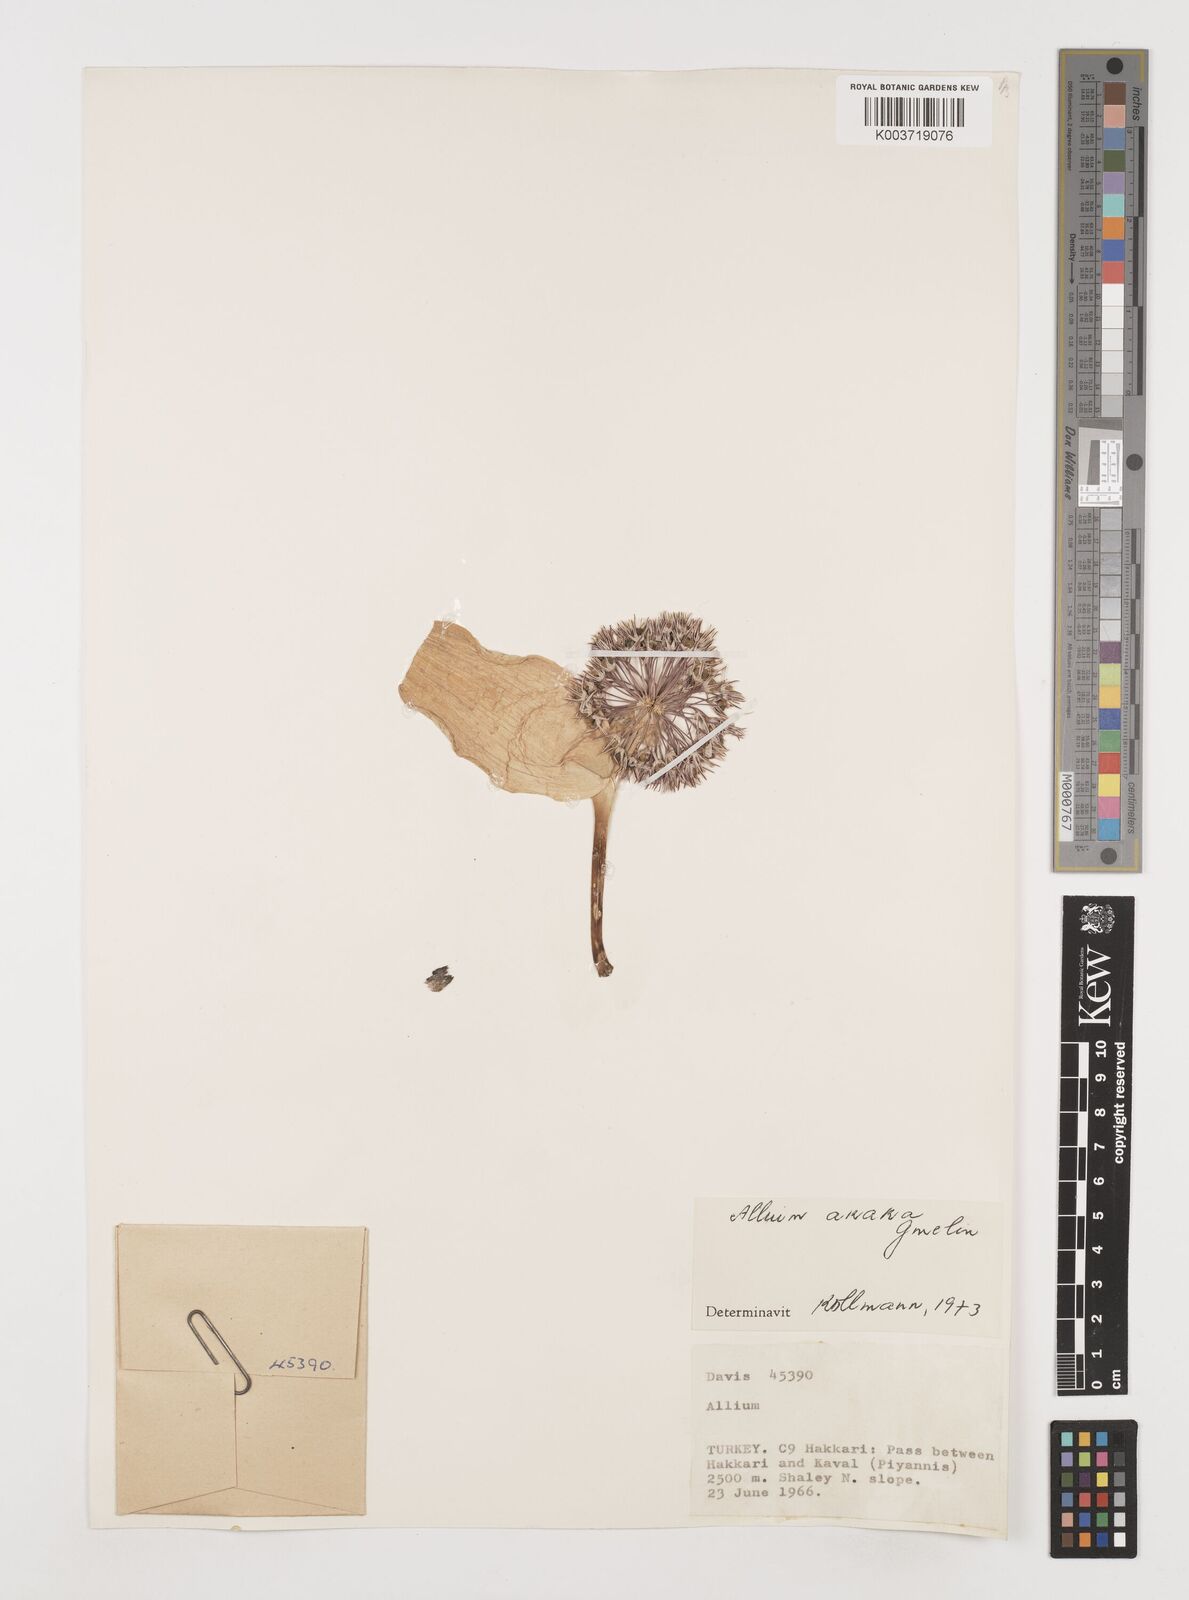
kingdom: Plantae
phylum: Tracheophyta
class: Liliopsida
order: Asparagales
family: Amaryllidaceae
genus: Allium
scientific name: Allium akaka
